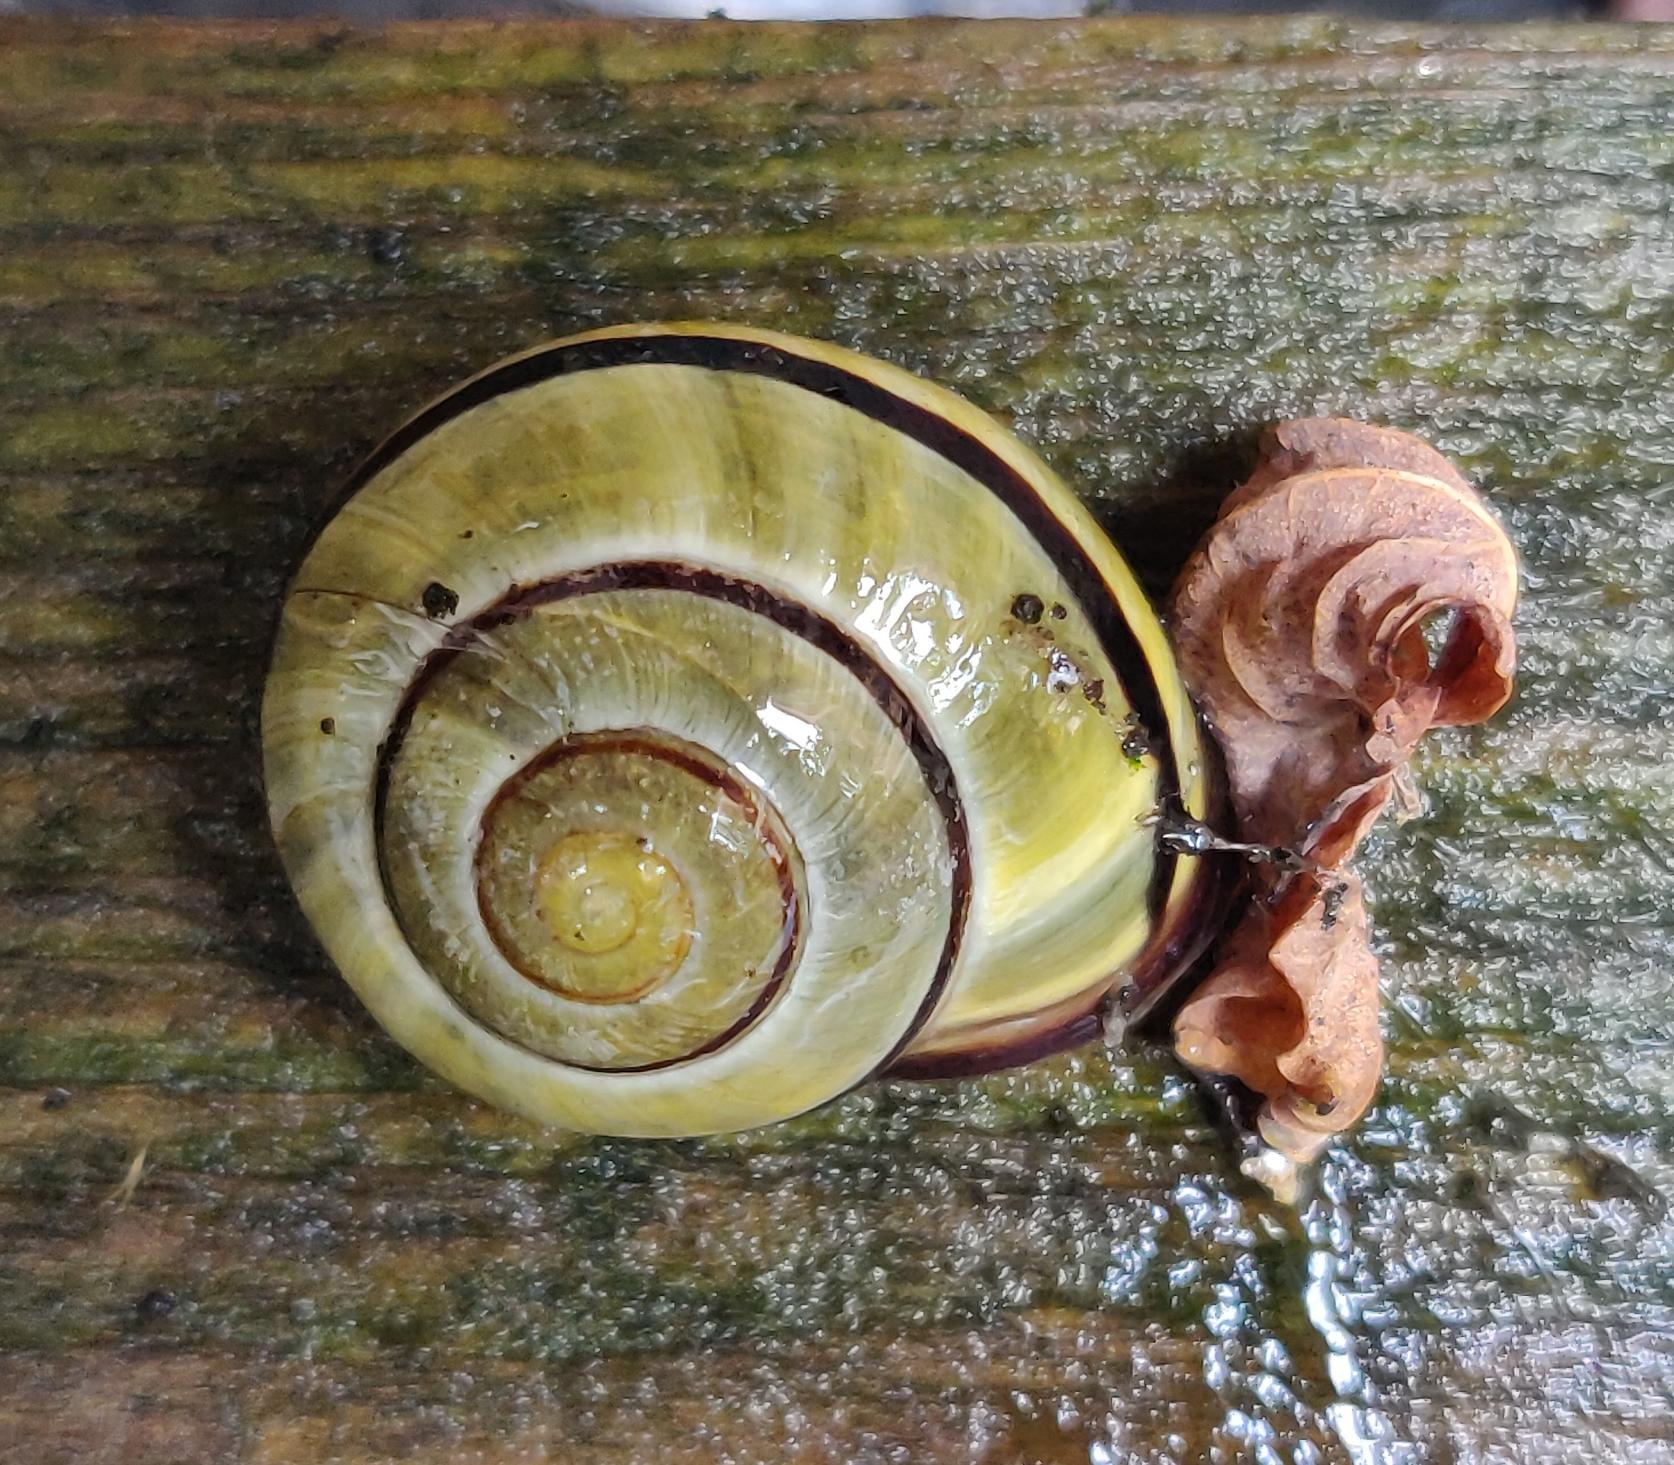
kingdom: Animalia
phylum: Mollusca
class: Gastropoda
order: Stylommatophora
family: Helicidae
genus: Cepaea
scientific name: Cepaea nemoralis
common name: Lundsnegl
